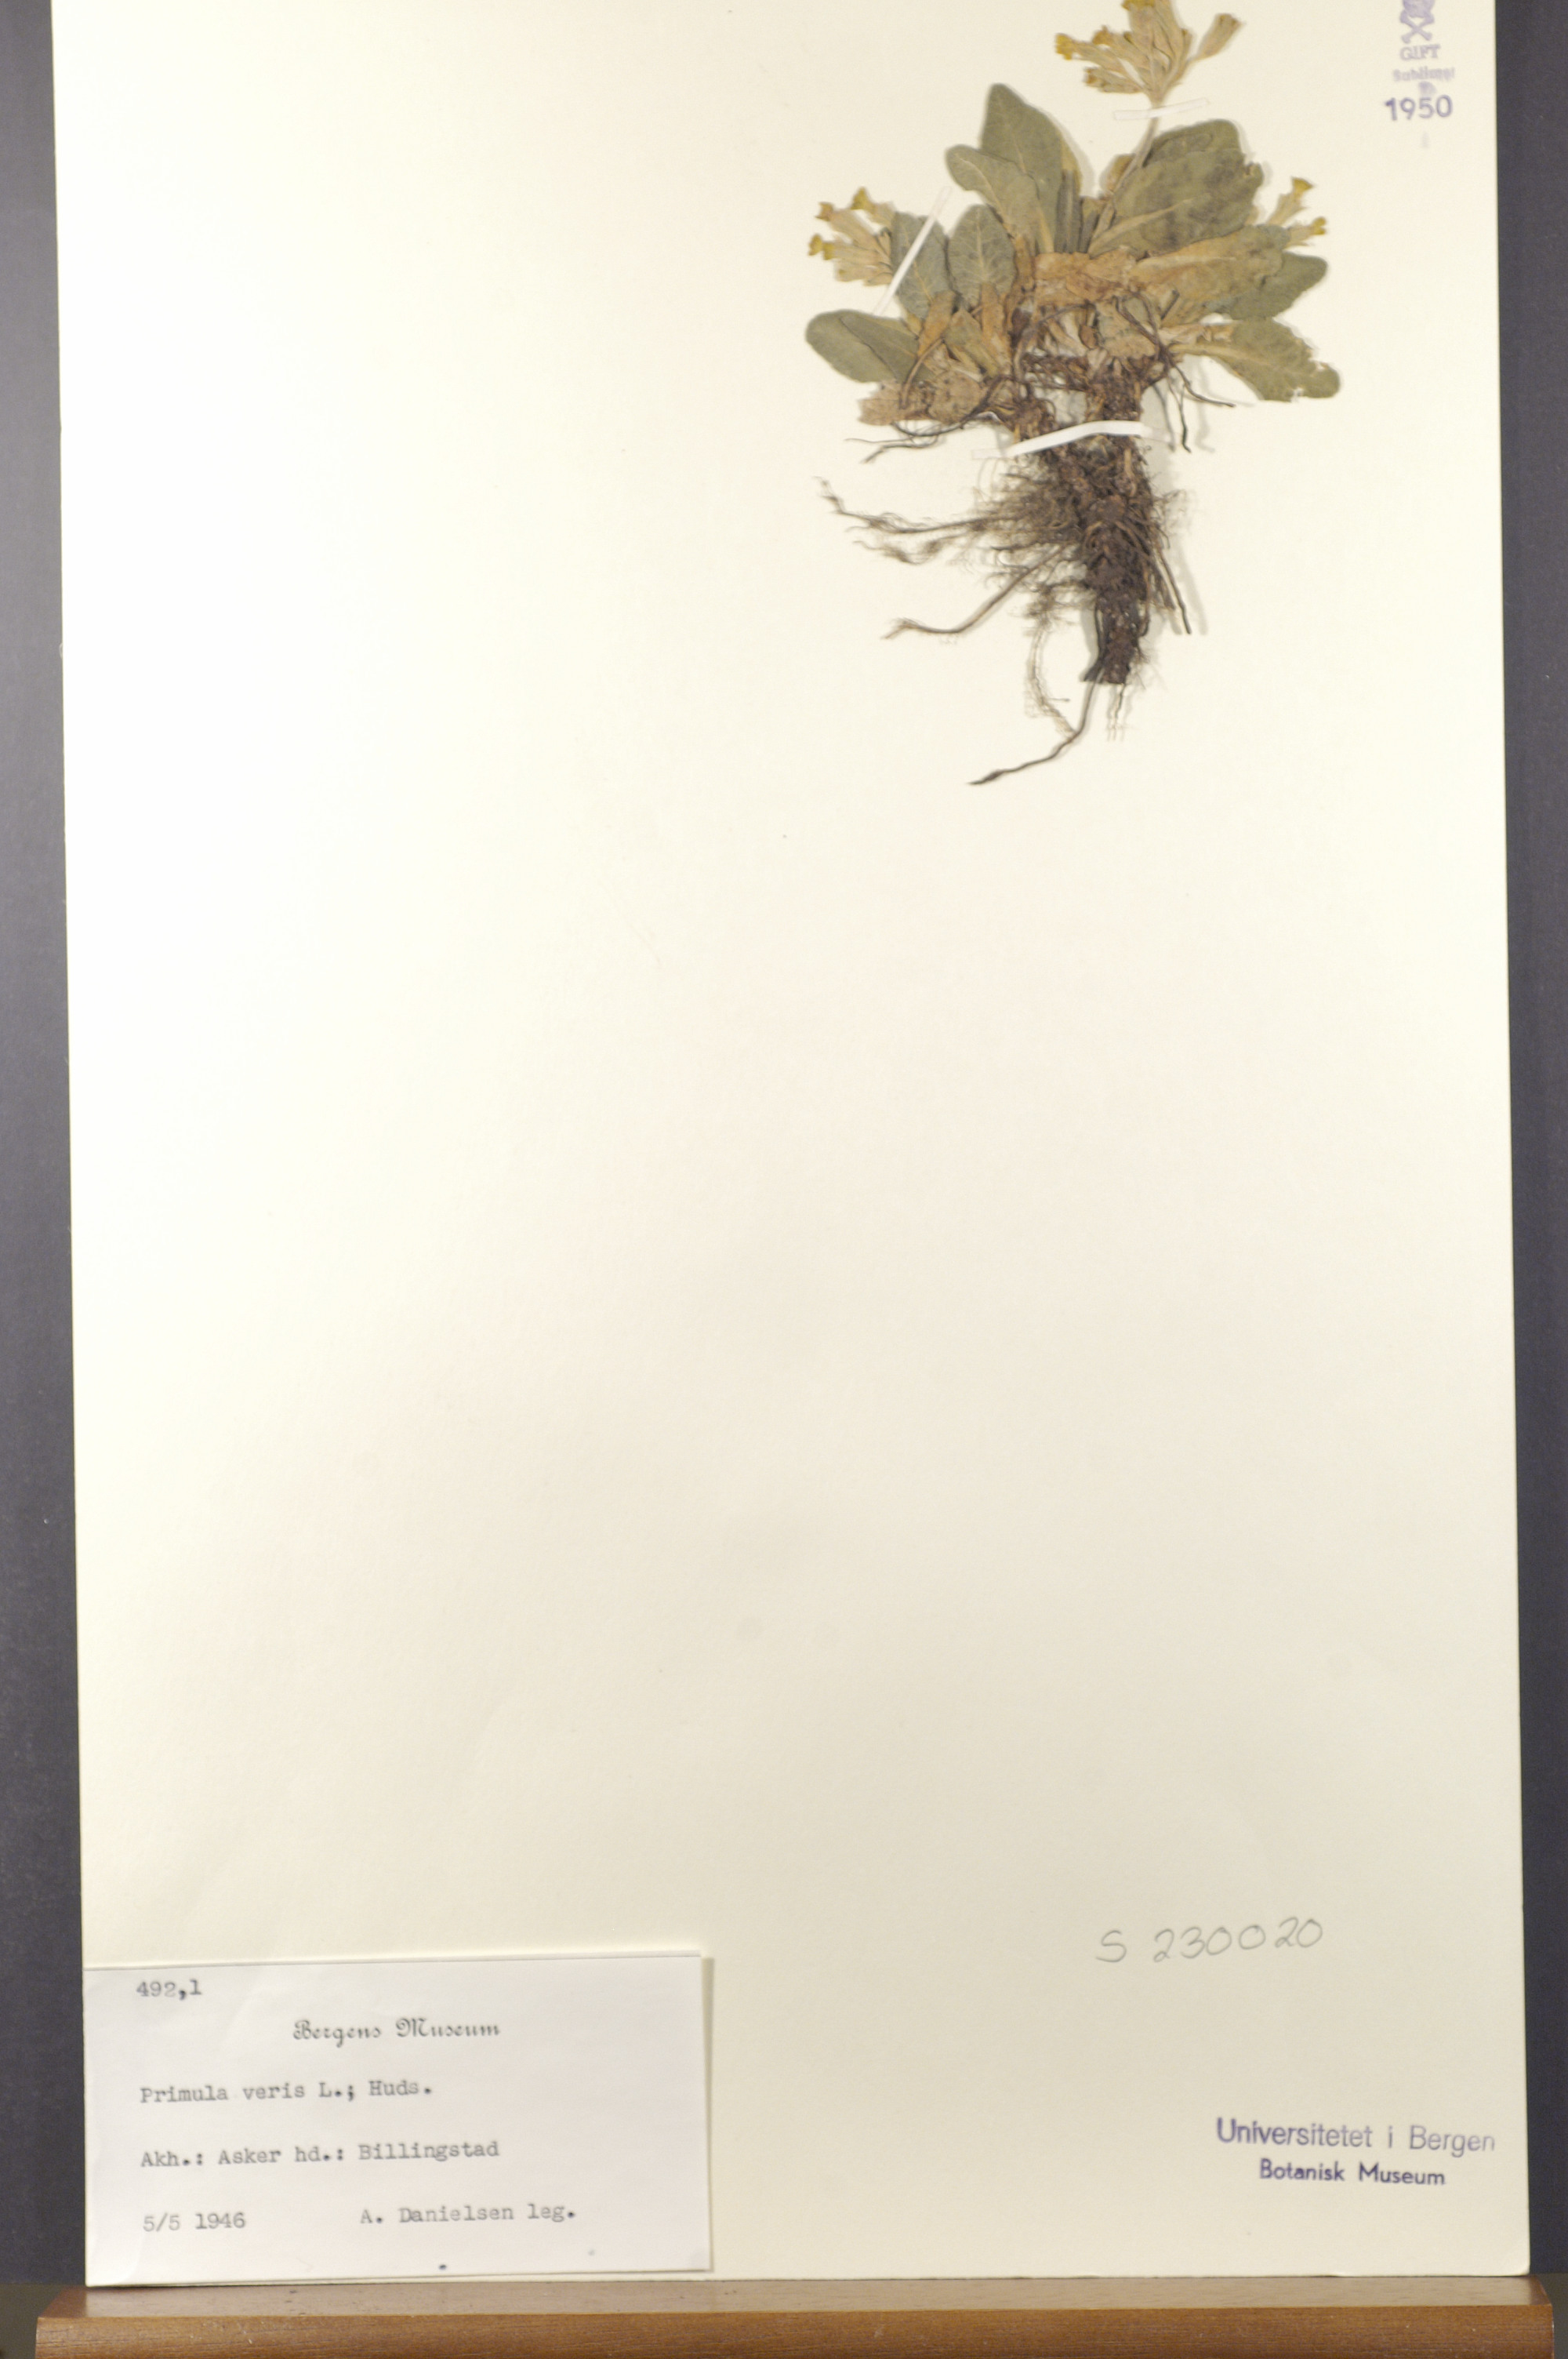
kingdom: Plantae
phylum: Tracheophyta
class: Magnoliopsida
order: Ericales
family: Primulaceae
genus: Primula
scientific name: Primula veris
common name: Cowslip
